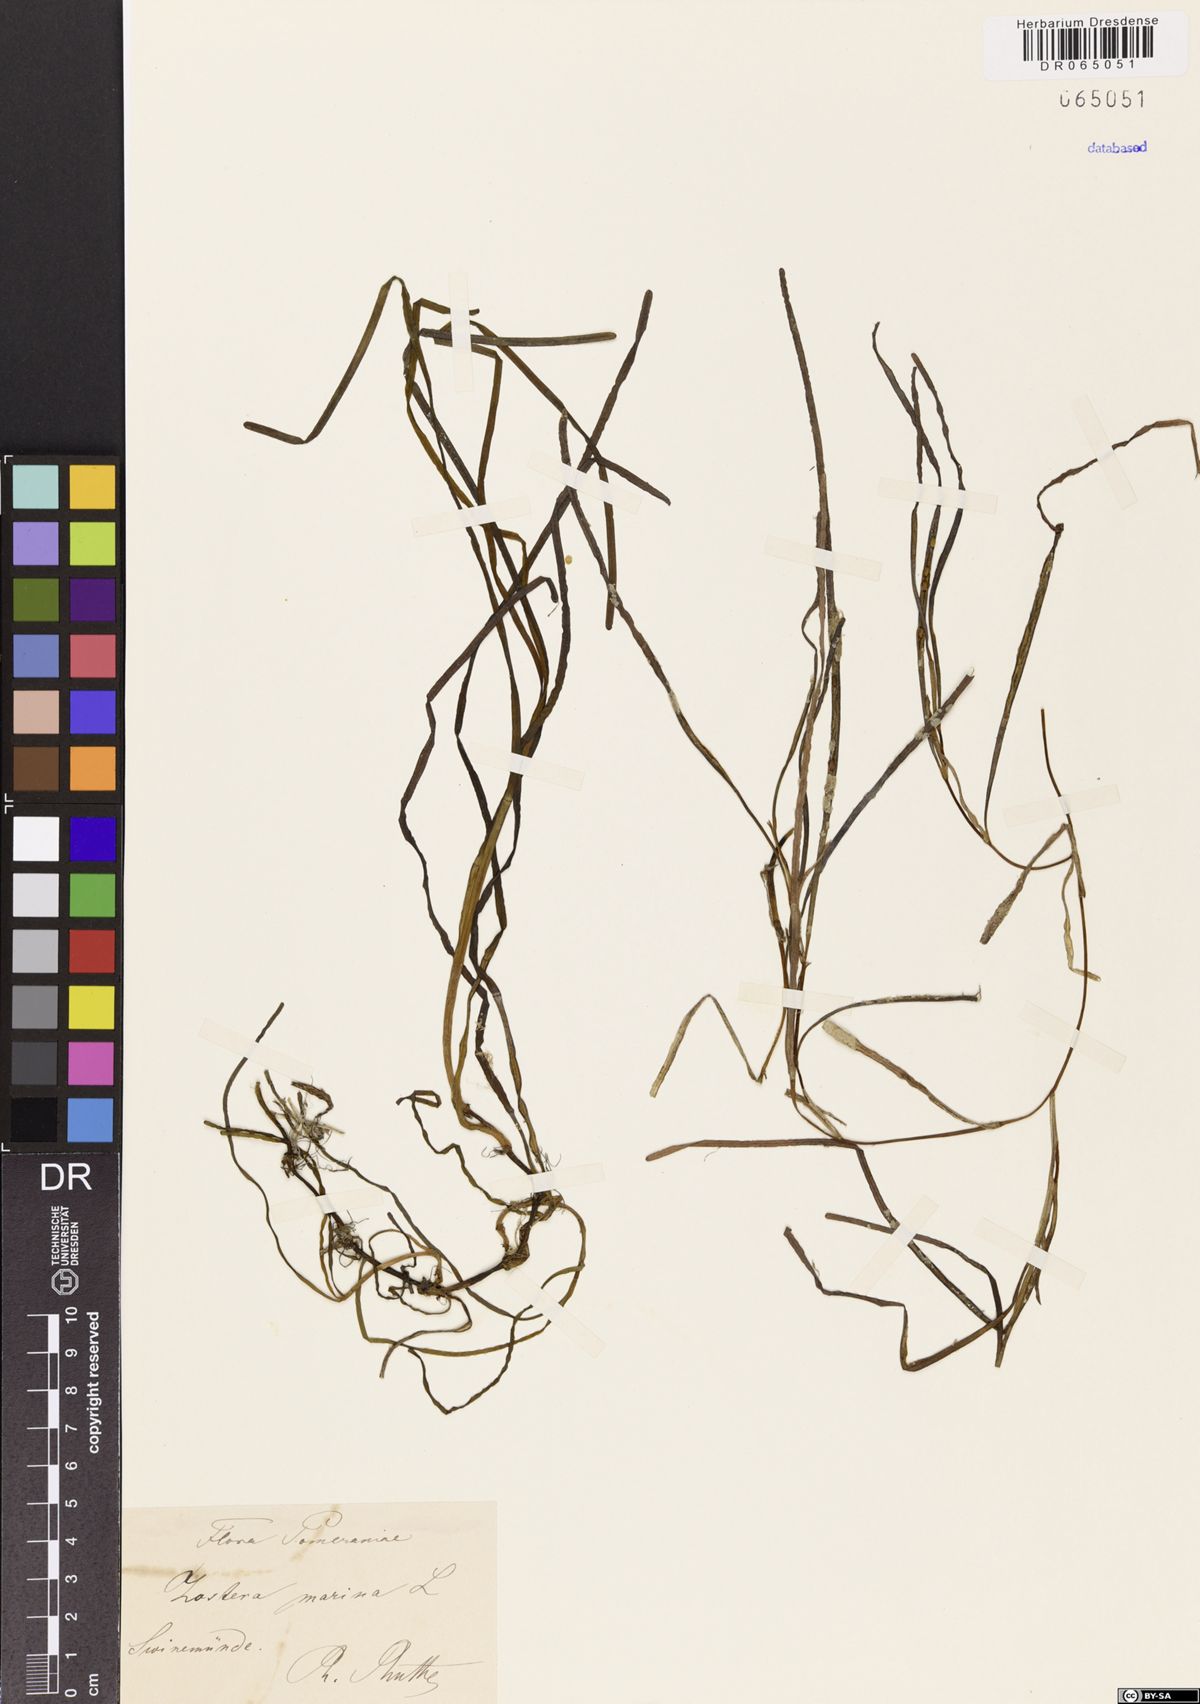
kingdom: Plantae
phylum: Tracheophyta
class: Liliopsida
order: Alismatales
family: Zosteraceae
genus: Zostera
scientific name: Zostera marina
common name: Eelgrass
